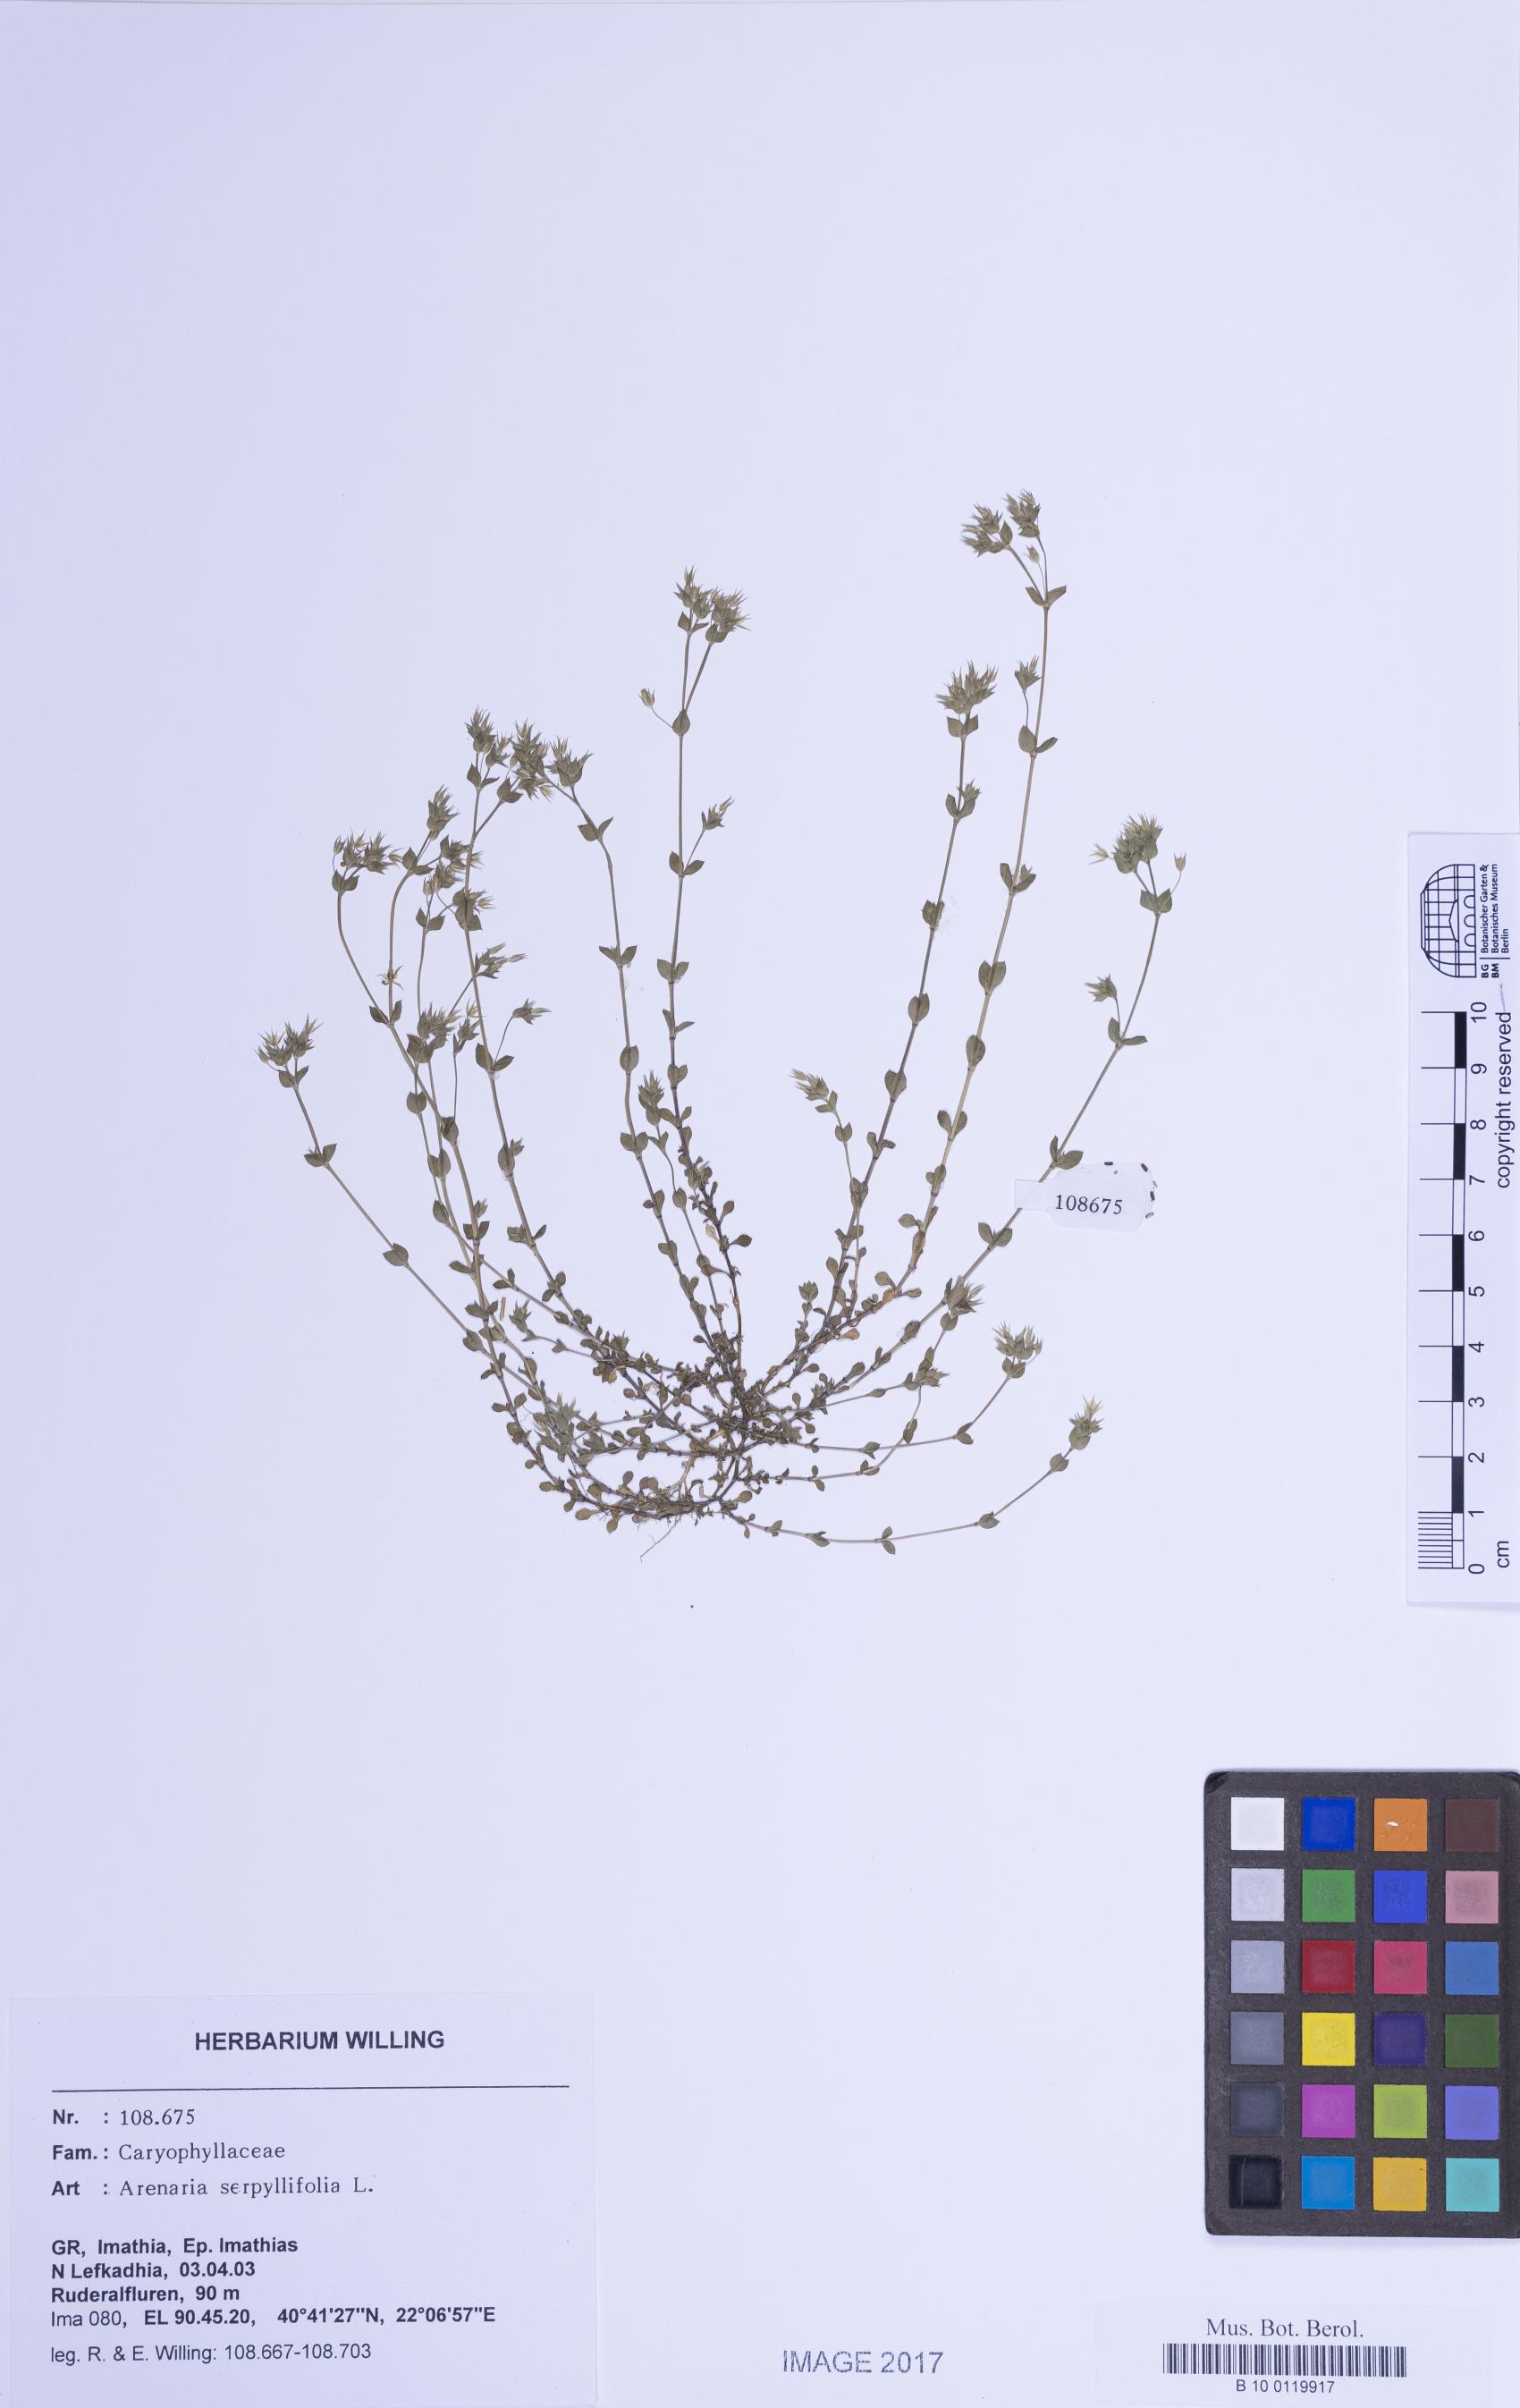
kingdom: Plantae
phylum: Tracheophyta
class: Magnoliopsida
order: Caryophyllales
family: Caryophyllaceae
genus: Arenaria
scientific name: Arenaria serpyllifolia
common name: Thyme-leaved sandwort
